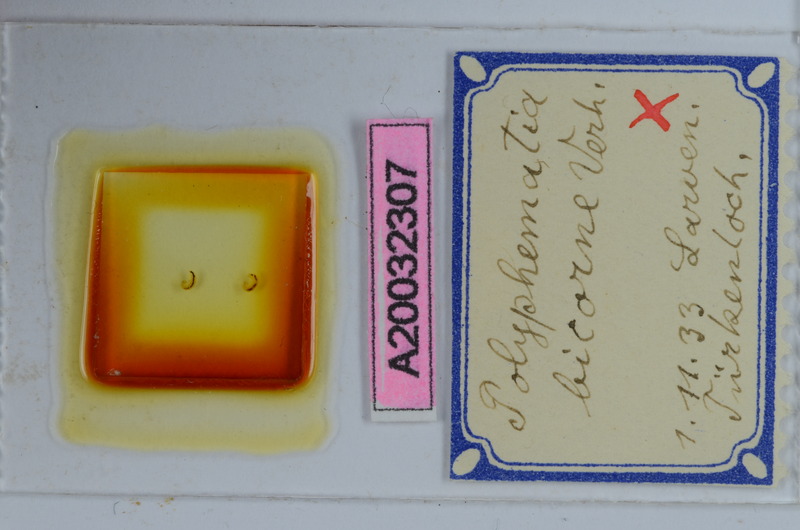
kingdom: Animalia
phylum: Arthropoda
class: Diplopoda
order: Chordeumatida
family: Attemsiidae
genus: Polyphematia
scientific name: Polyphematia moniliformis
